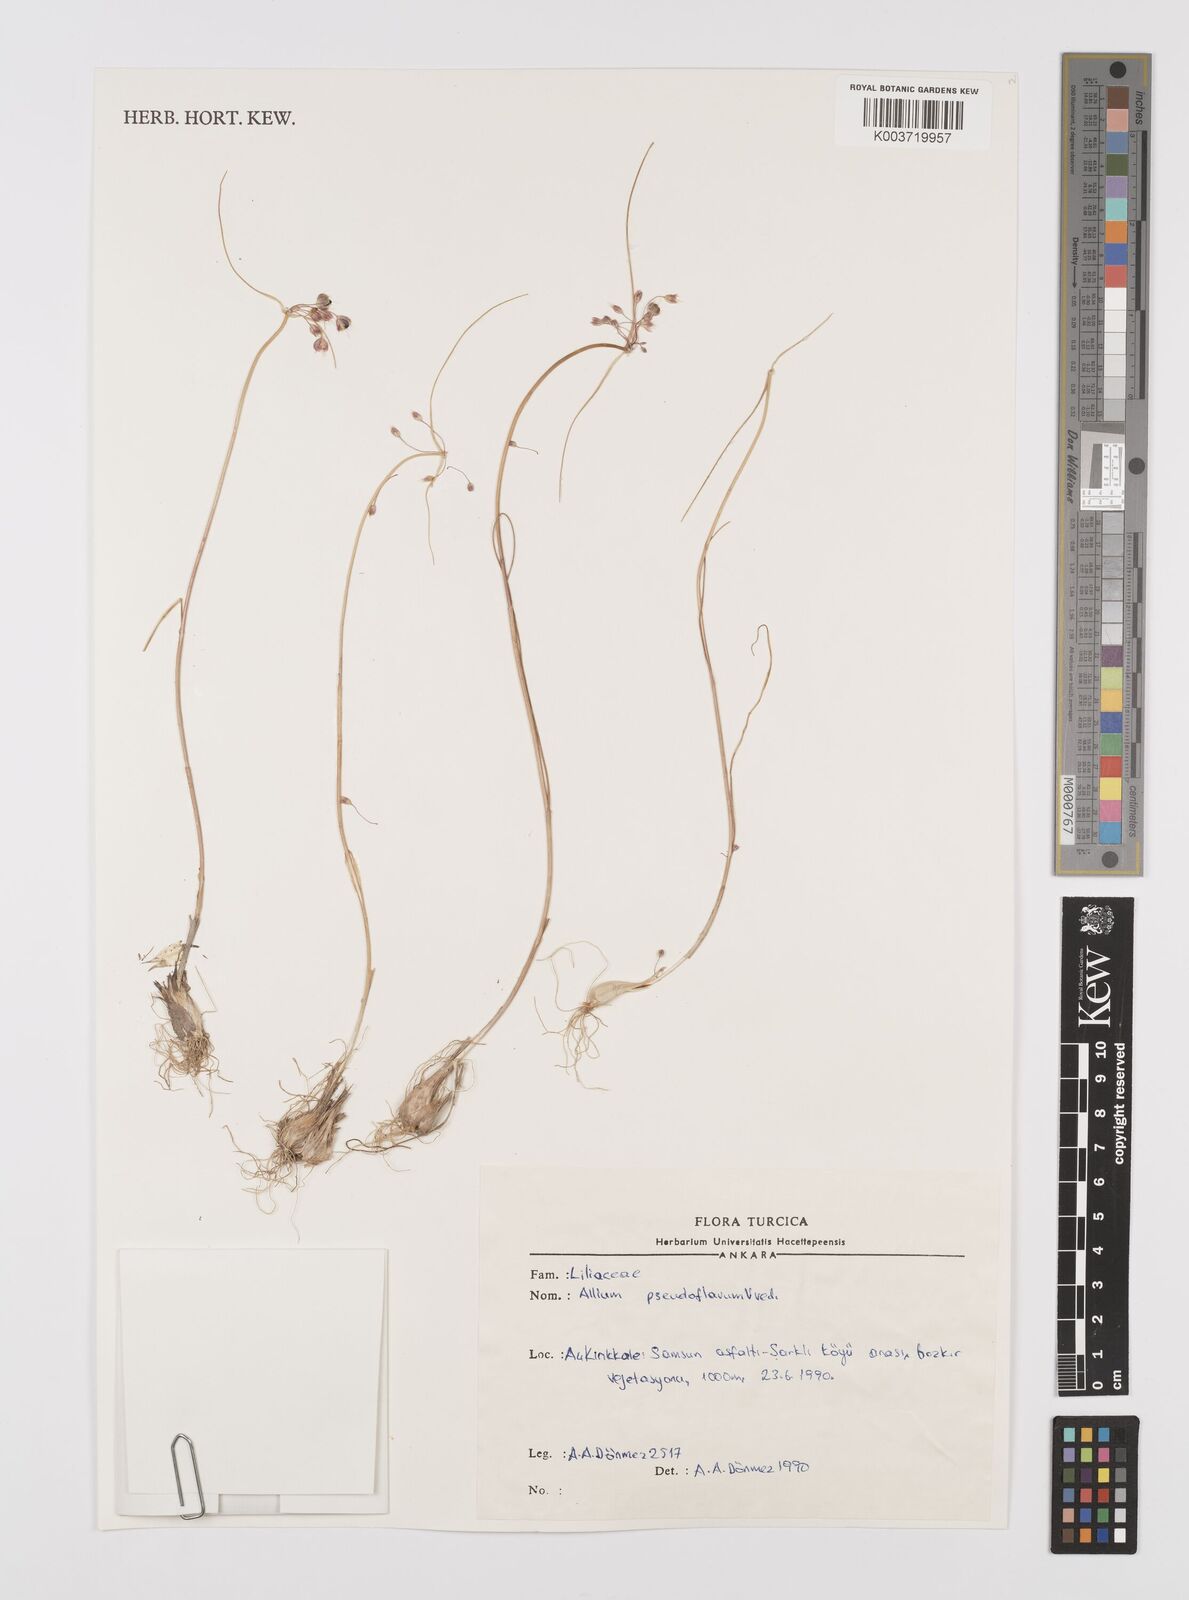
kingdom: Plantae
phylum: Tracheophyta
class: Liliopsida
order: Asparagales
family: Amaryllidaceae
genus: Allium
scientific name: Allium pseudoflavum
